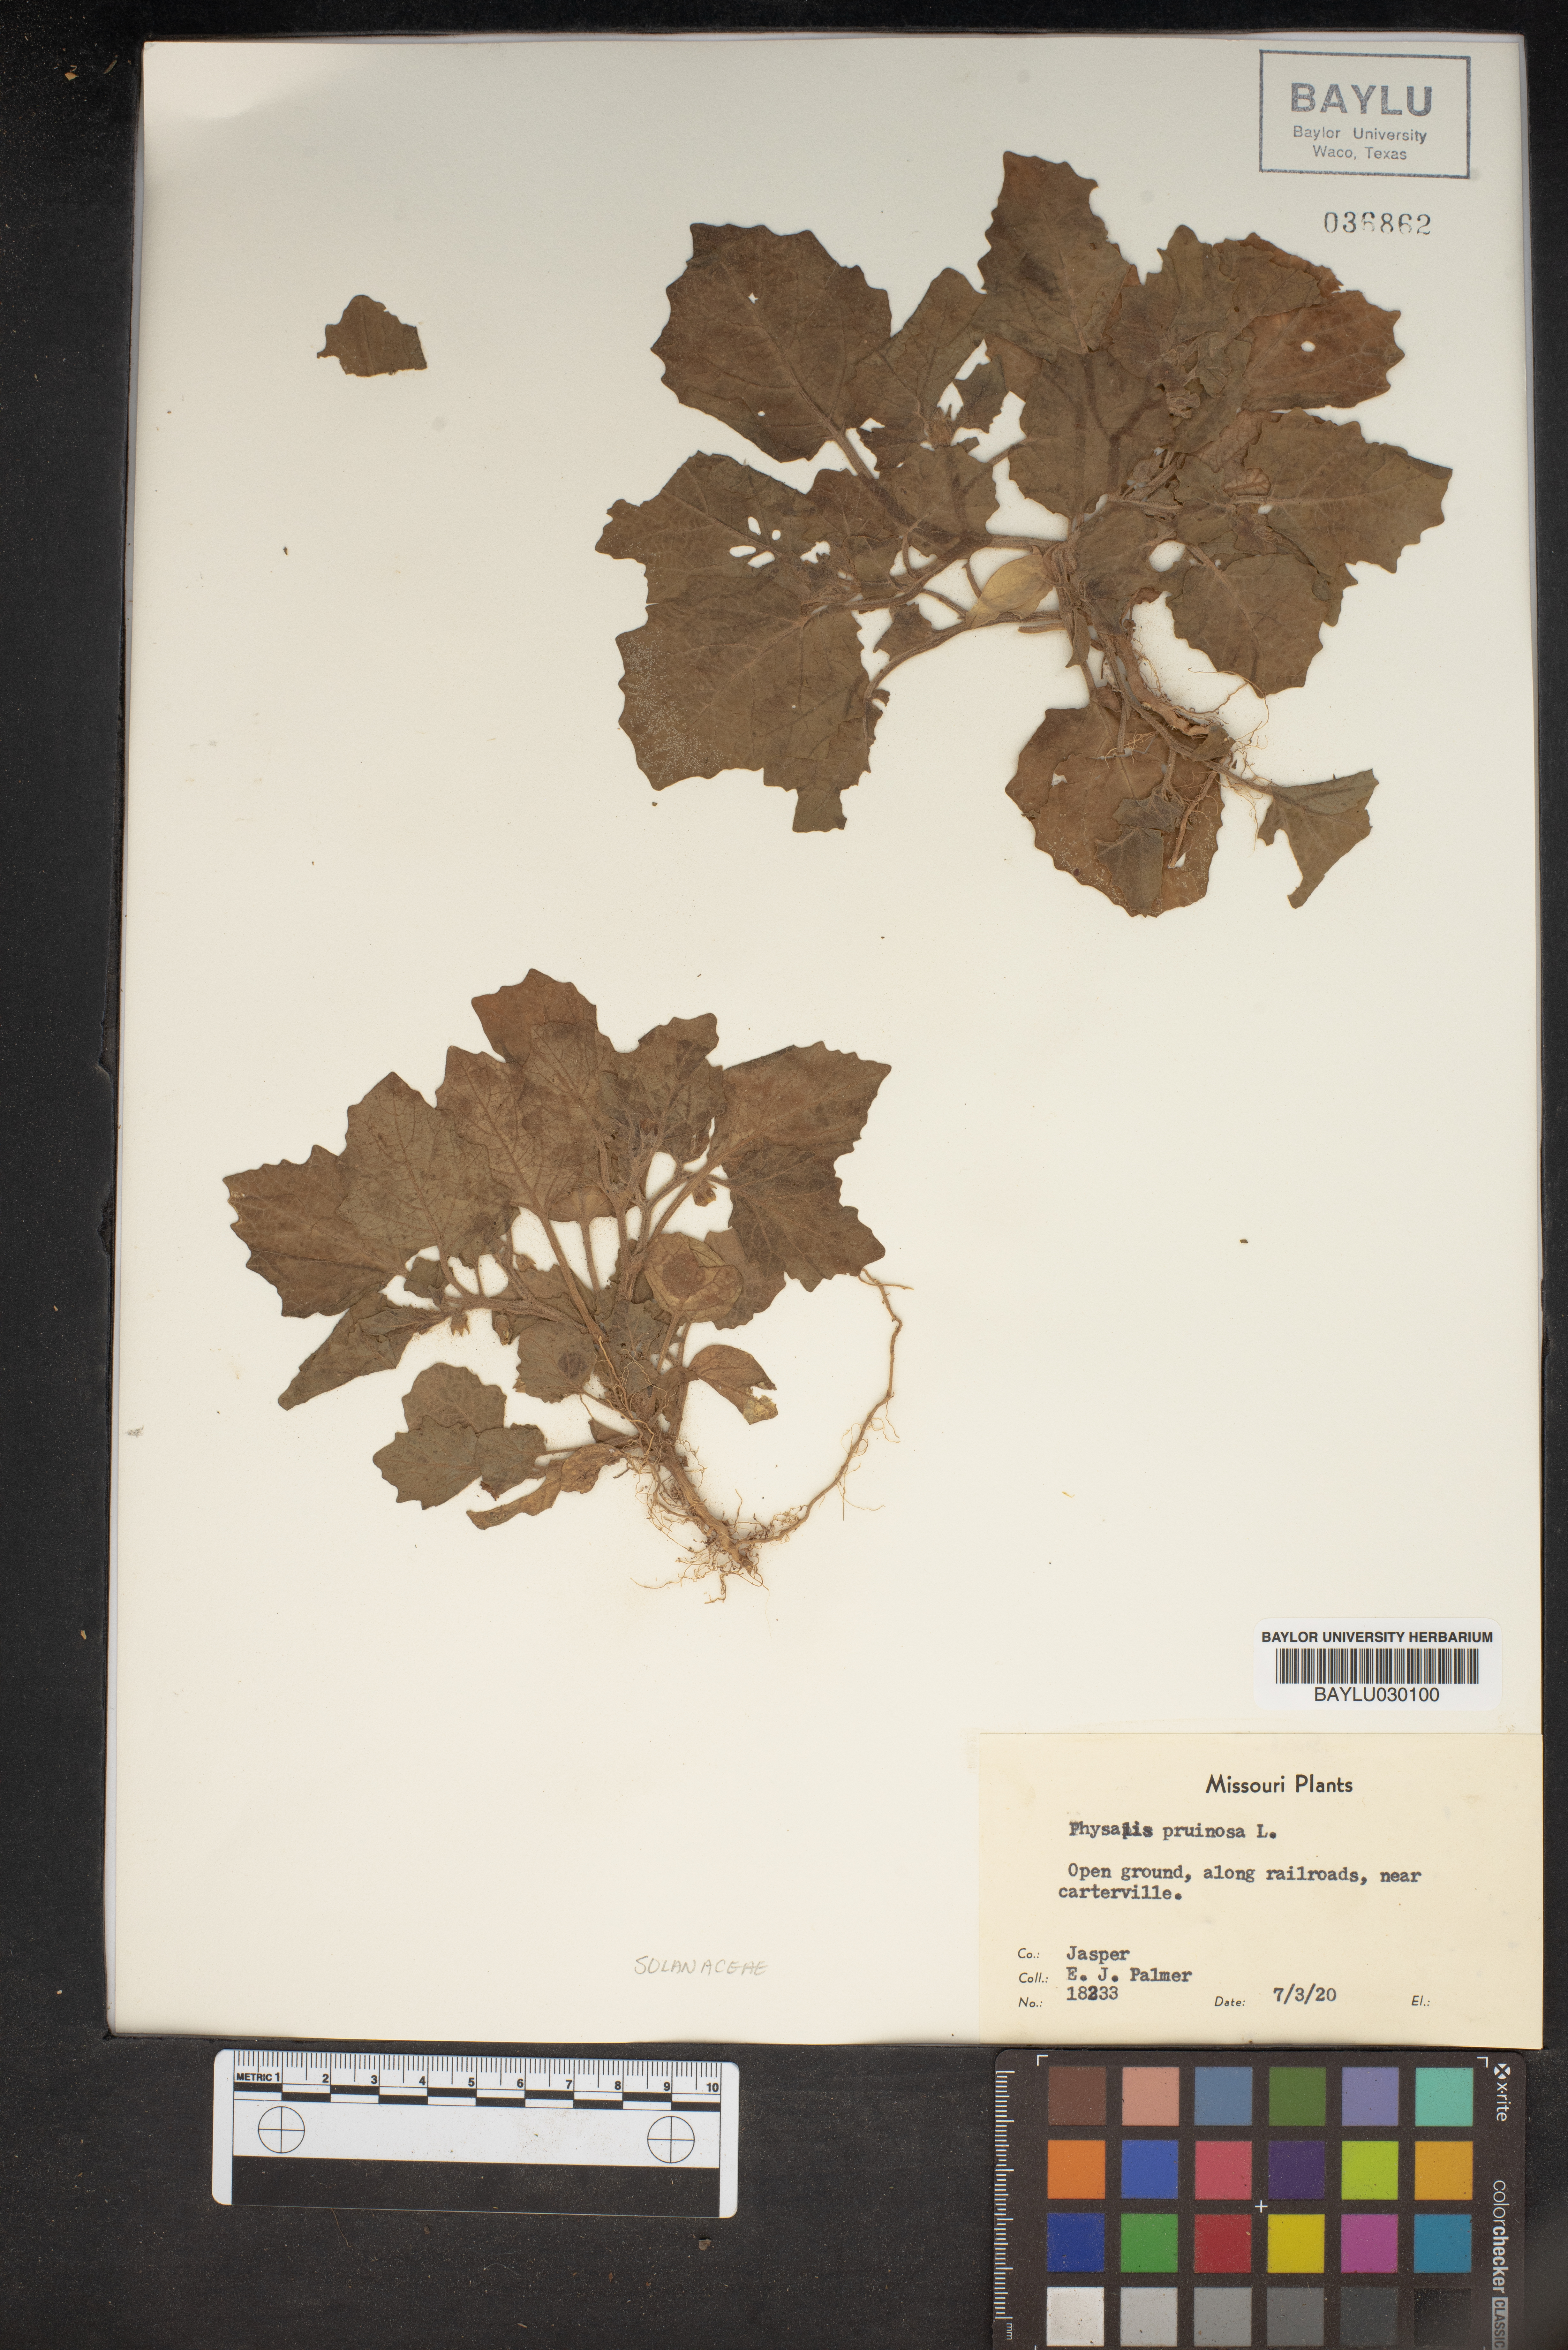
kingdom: Plantae
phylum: Tracheophyta
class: Magnoliopsida
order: Solanales
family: Solanaceae
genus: Physalis
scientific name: Physalis pruinosa
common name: Strawberry tomato
